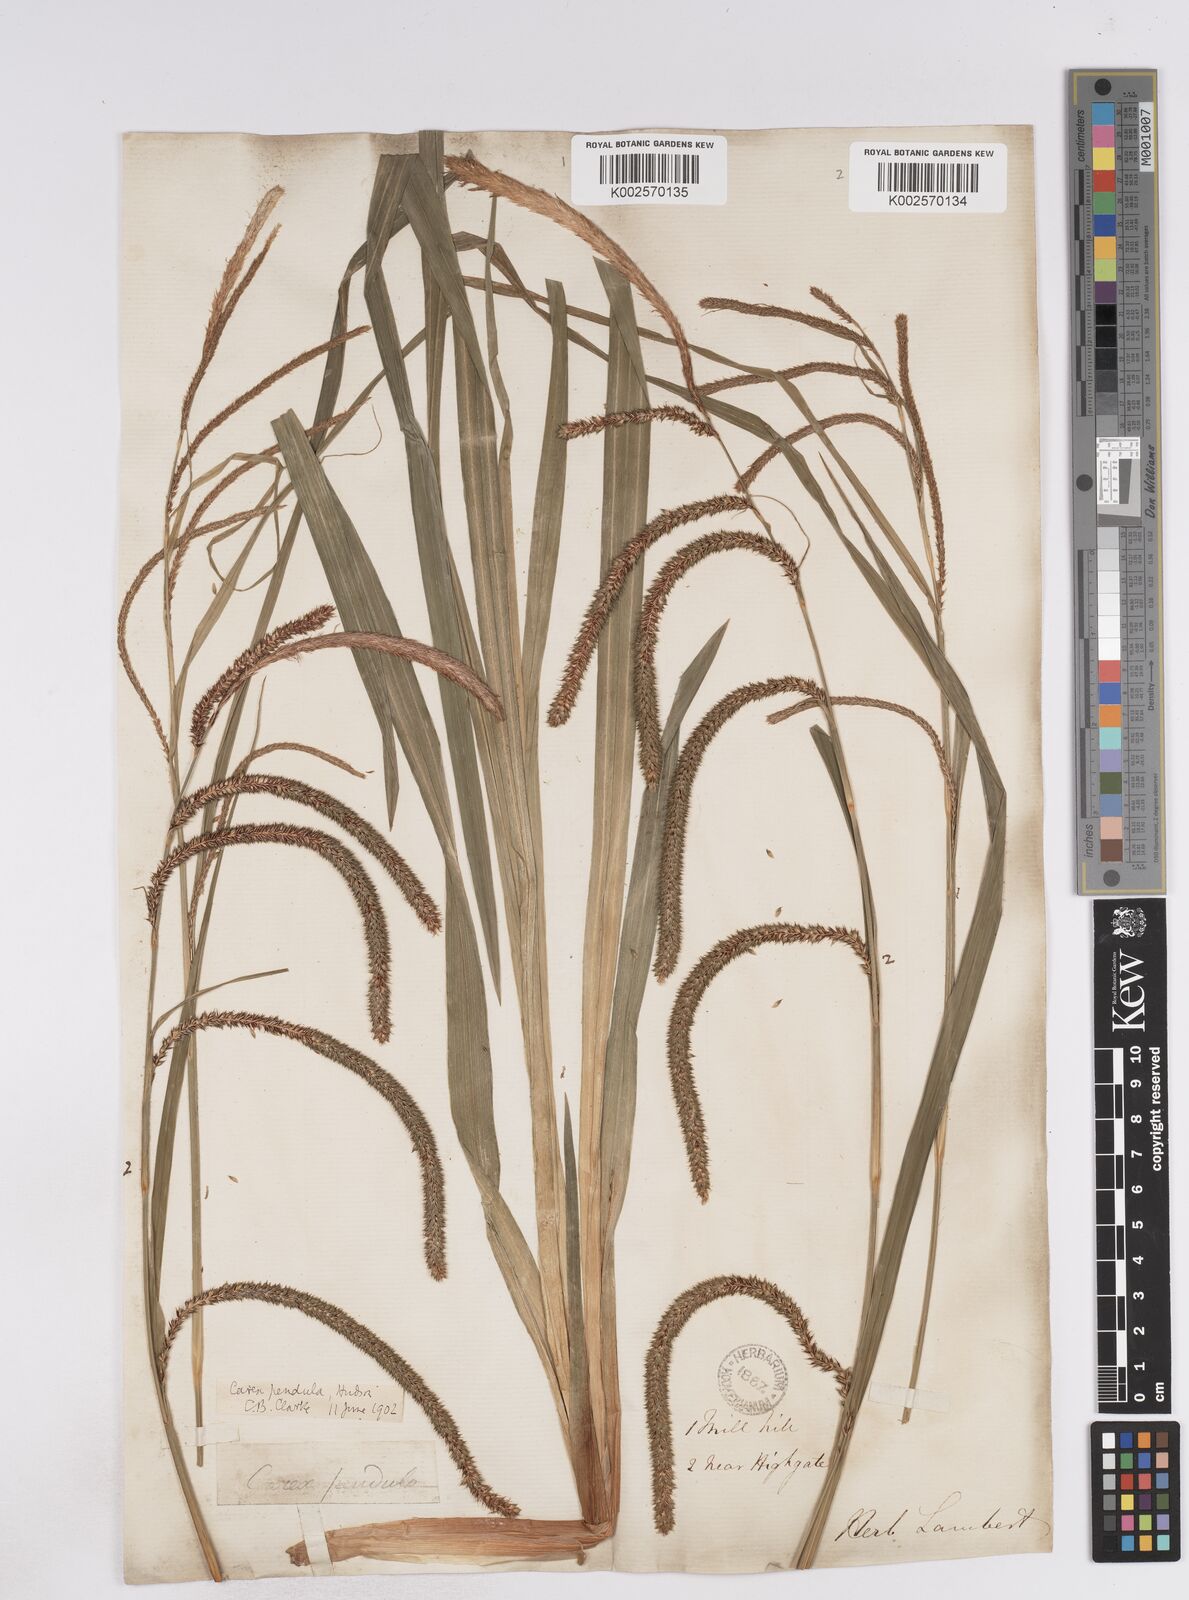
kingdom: Plantae
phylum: Tracheophyta
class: Liliopsida
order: Poales
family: Cyperaceae
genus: Carex
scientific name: Carex pendula
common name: Pendulous sedge
